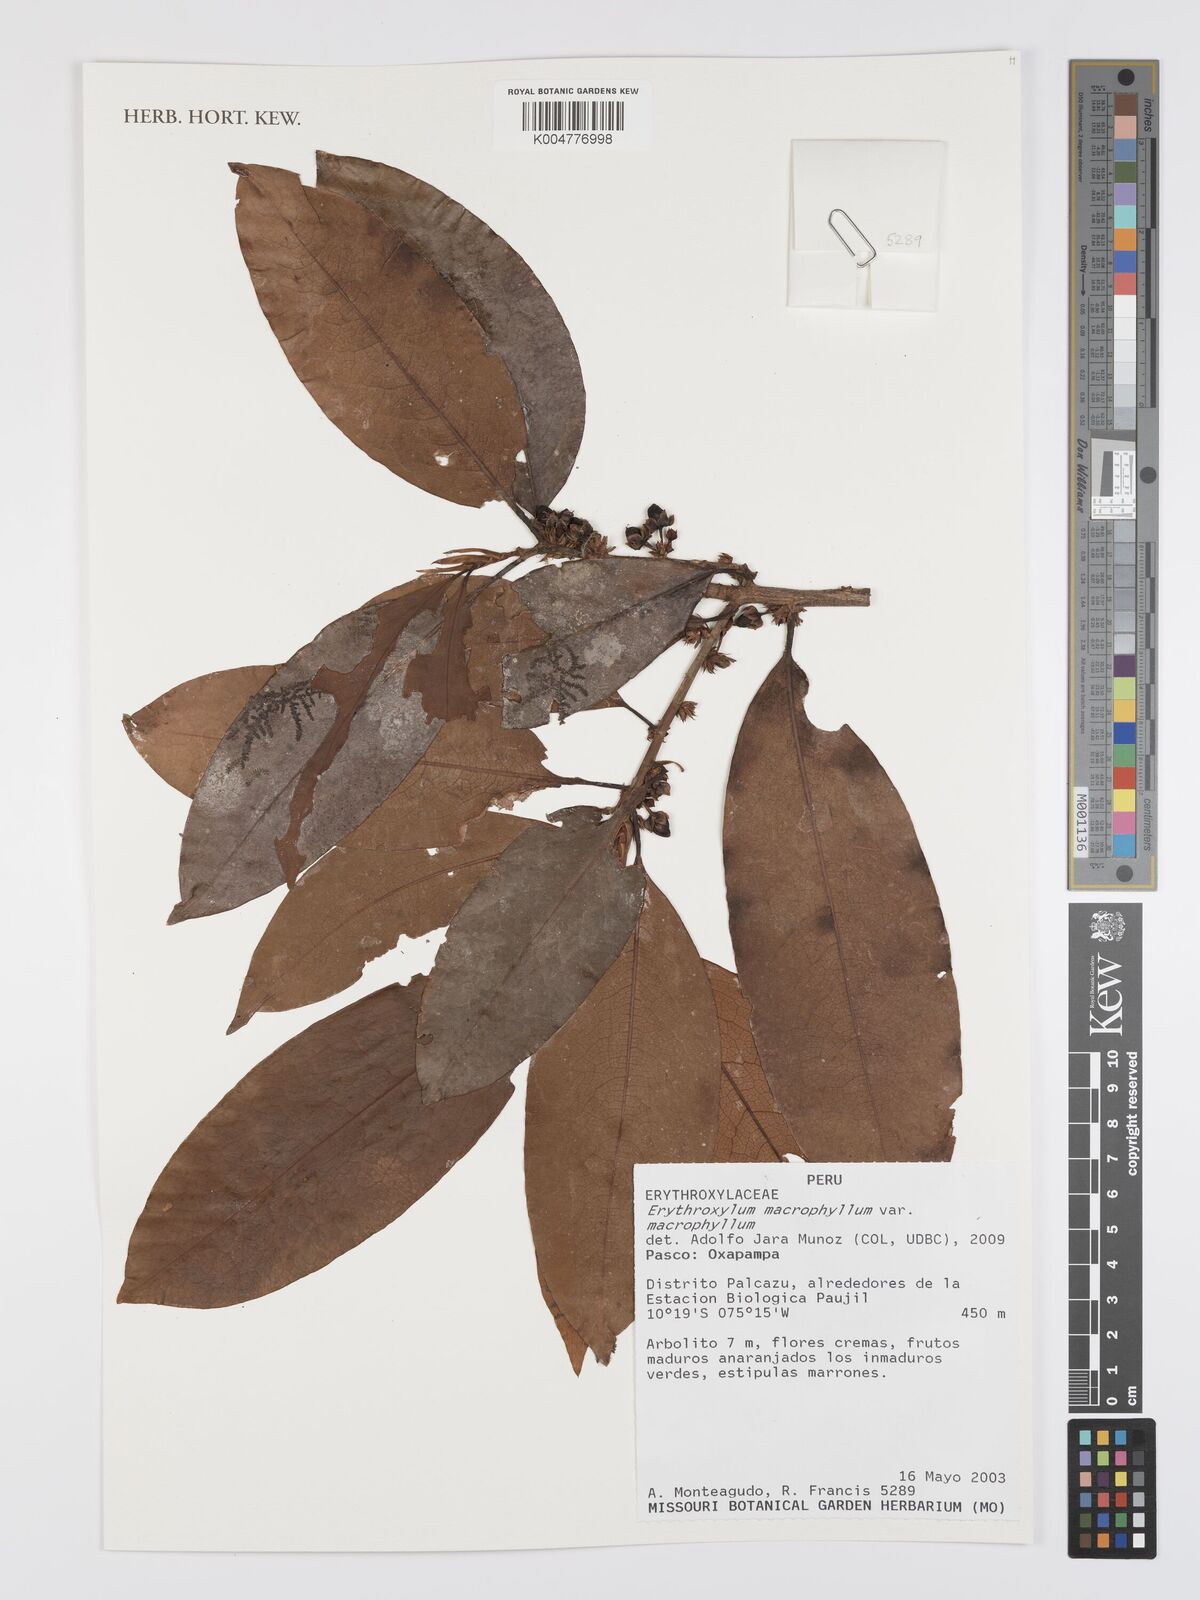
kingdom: Plantae
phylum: Tracheophyta
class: Magnoliopsida
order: Malpighiales
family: Erythroxylaceae
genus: Erythroxylum
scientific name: Erythroxylum
